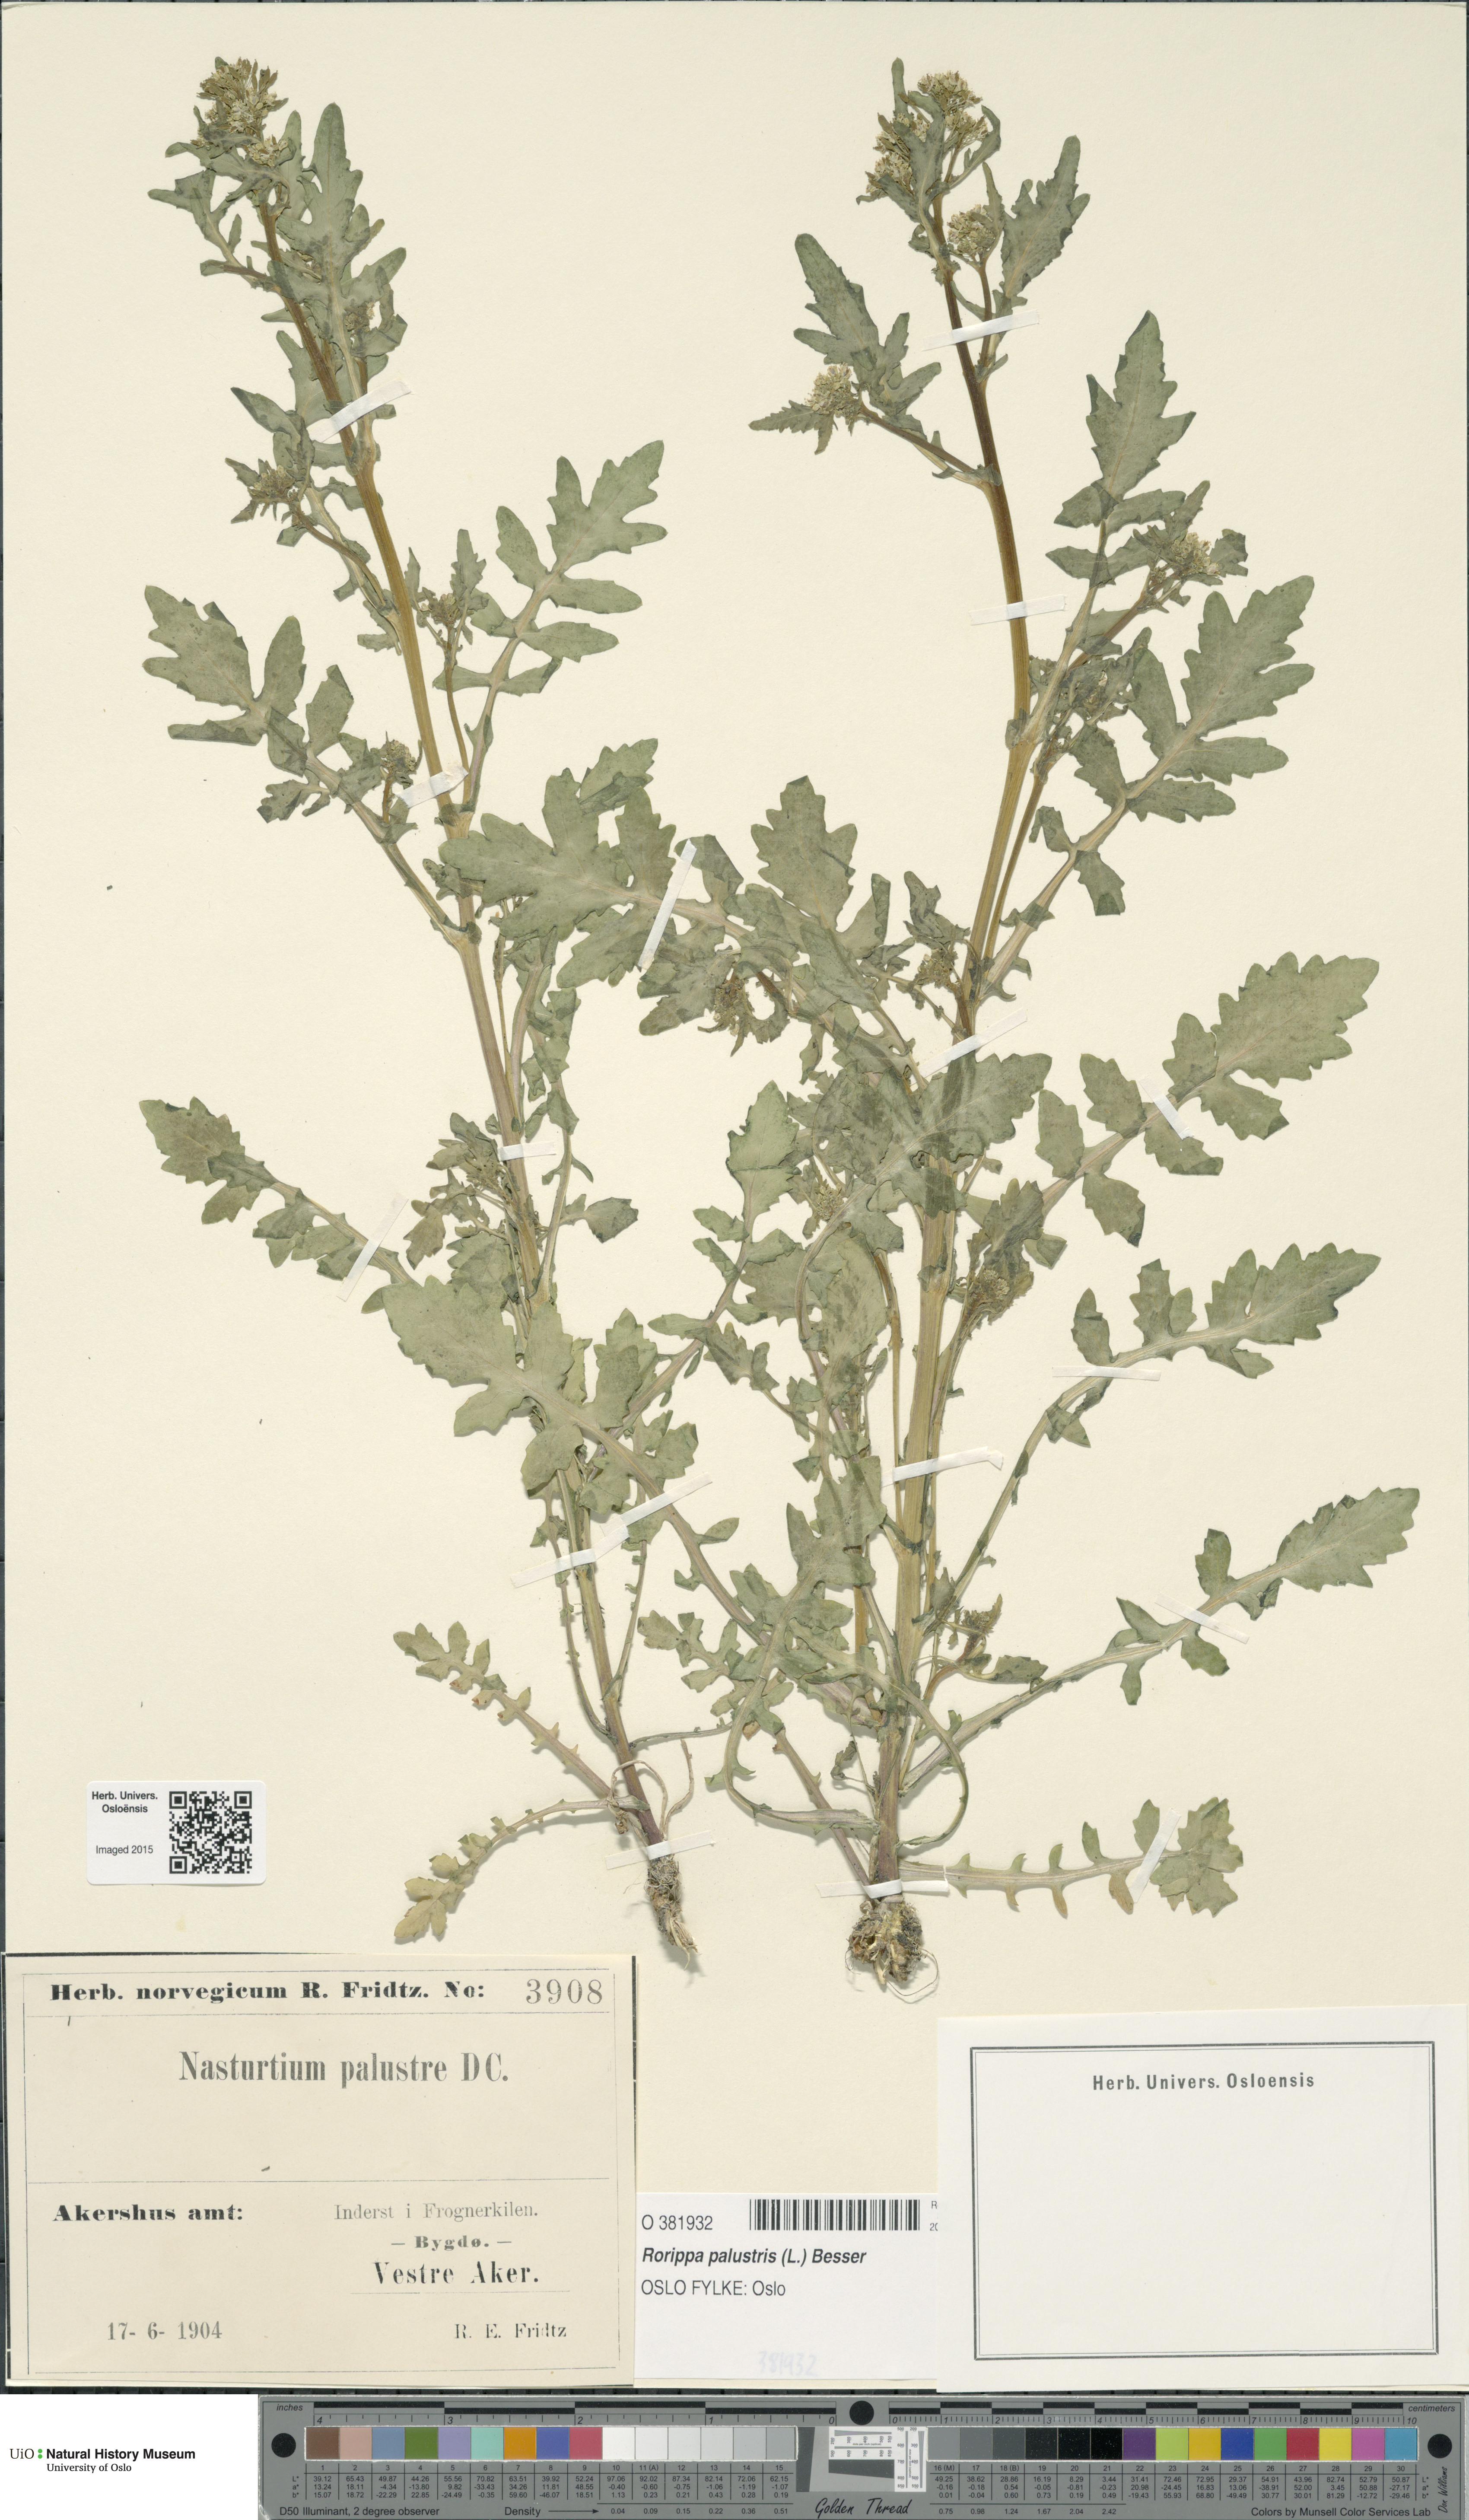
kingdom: Plantae
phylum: Tracheophyta
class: Magnoliopsida
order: Brassicales
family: Brassicaceae
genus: Rorippa
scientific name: Rorippa palustris
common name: Marsh yellow-cress
